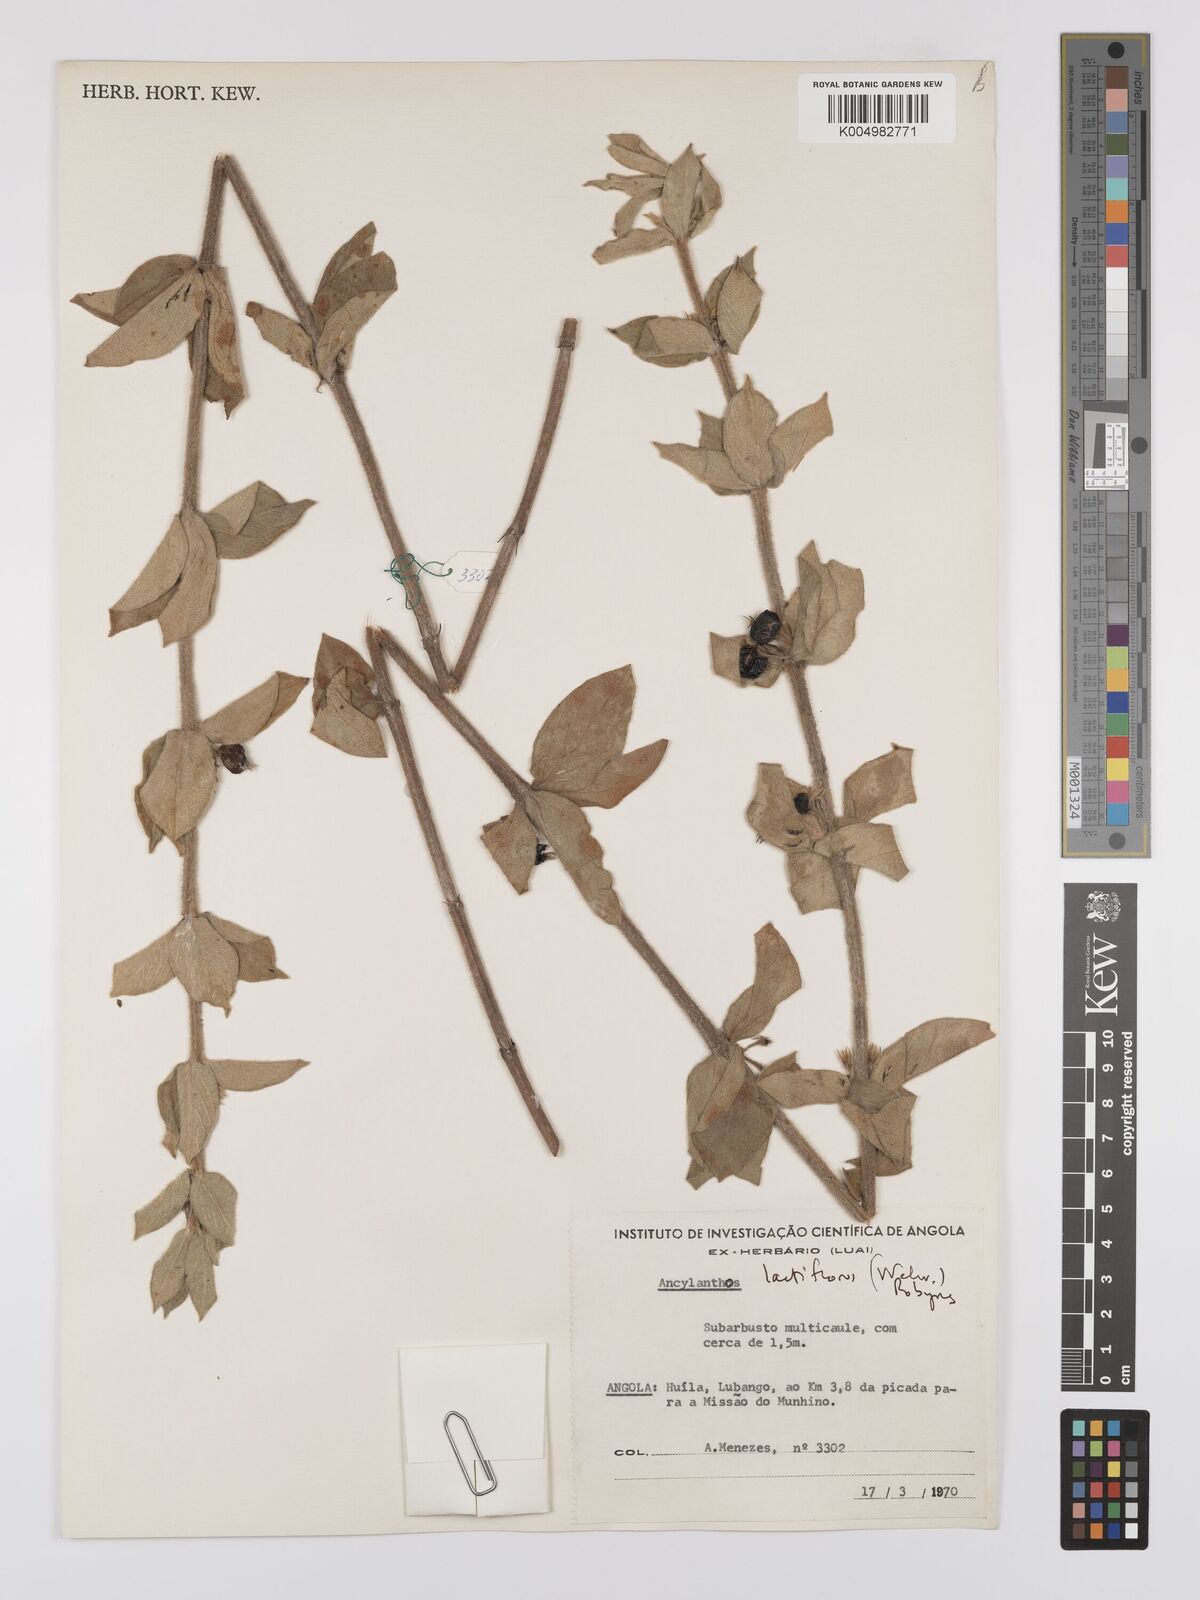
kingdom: Plantae
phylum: Tracheophyta
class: Magnoliopsida
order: Gentianales
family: Rubiaceae
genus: Fadogia
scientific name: Fadogia lactiflora
